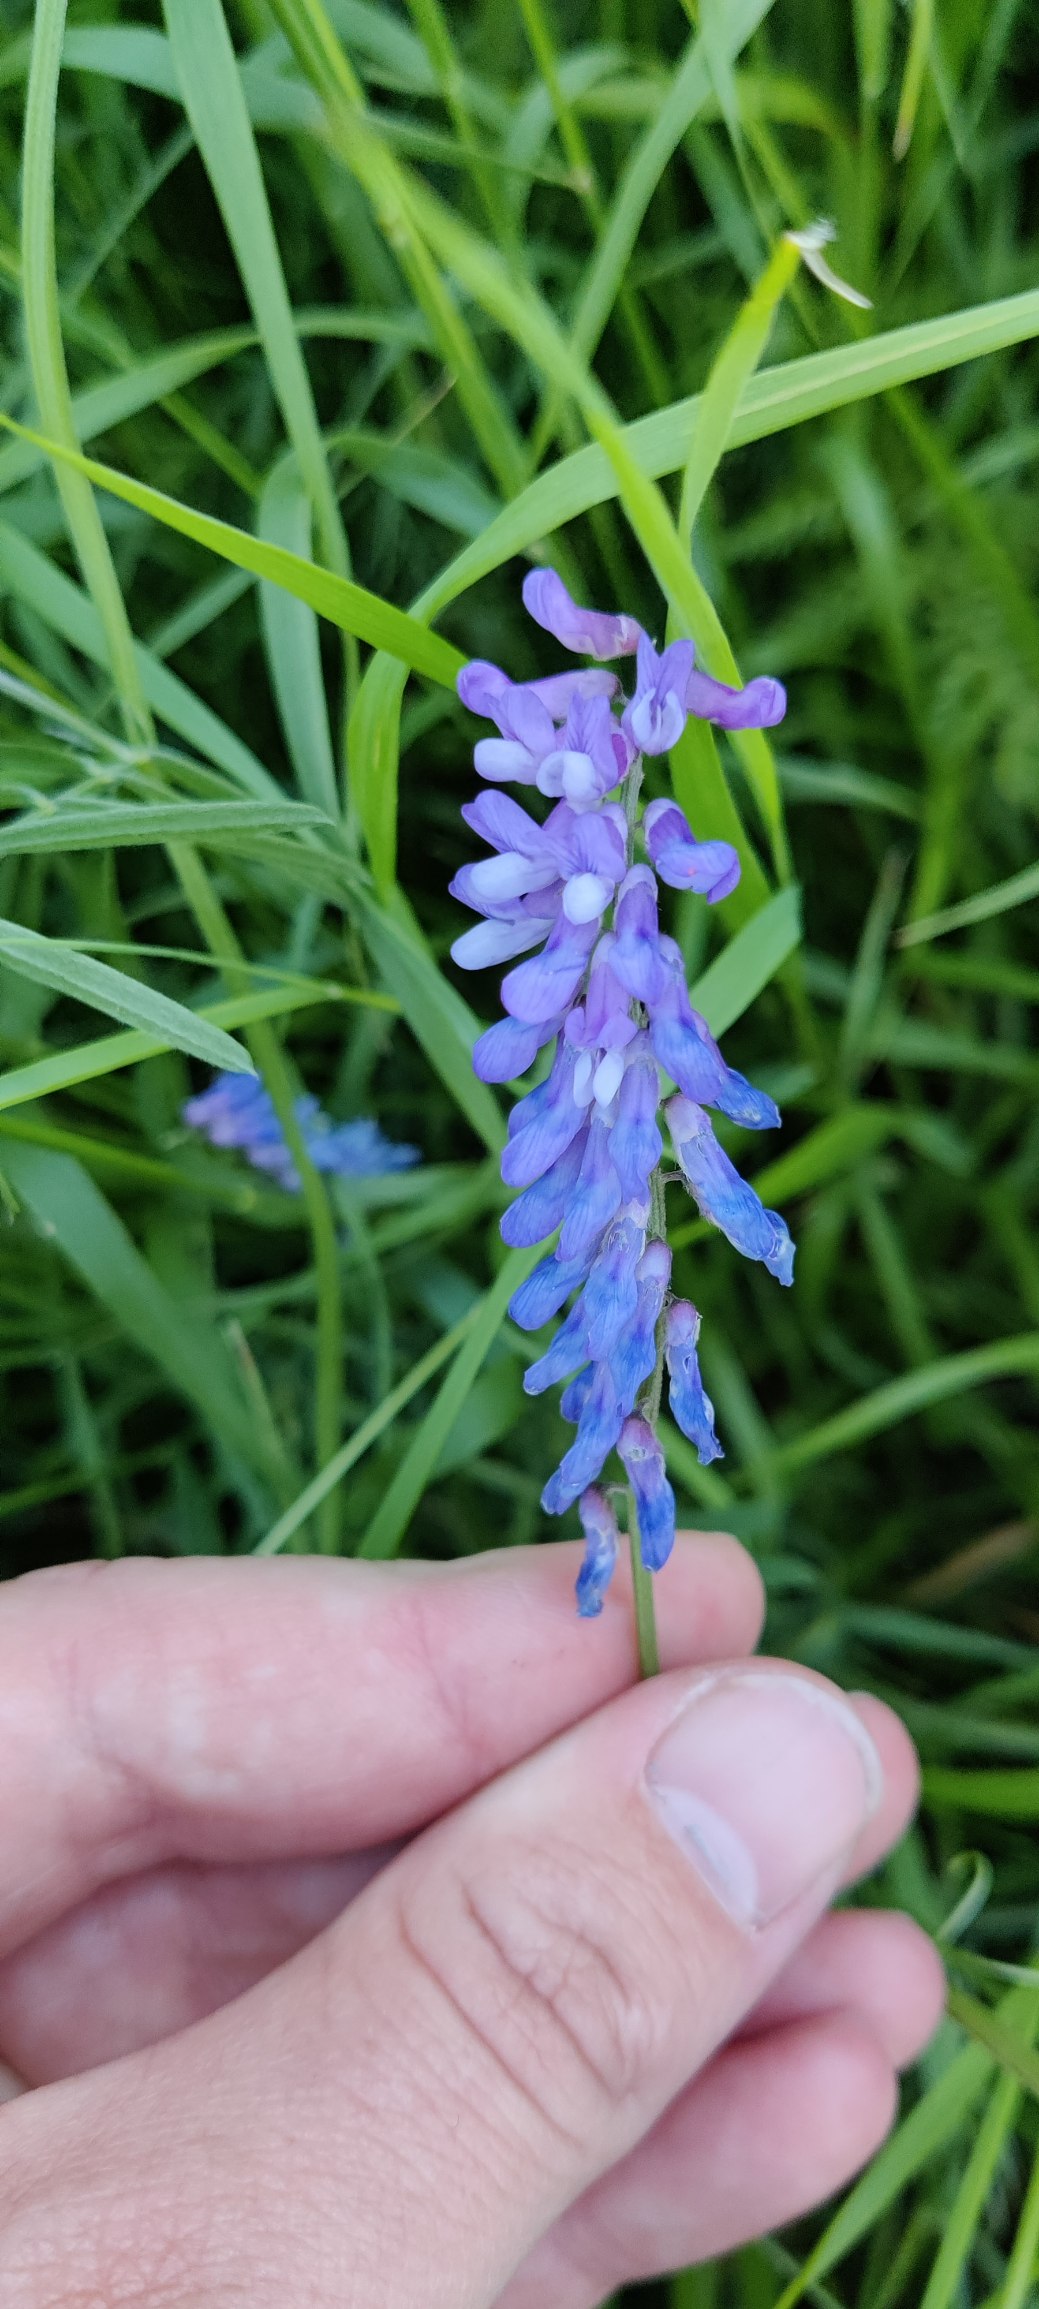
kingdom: Plantae
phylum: Tracheophyta
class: Magnoliopsida
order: Fabales
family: Fabaceae
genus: Vicia
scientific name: Vicia cracca
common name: Muse-vikke
